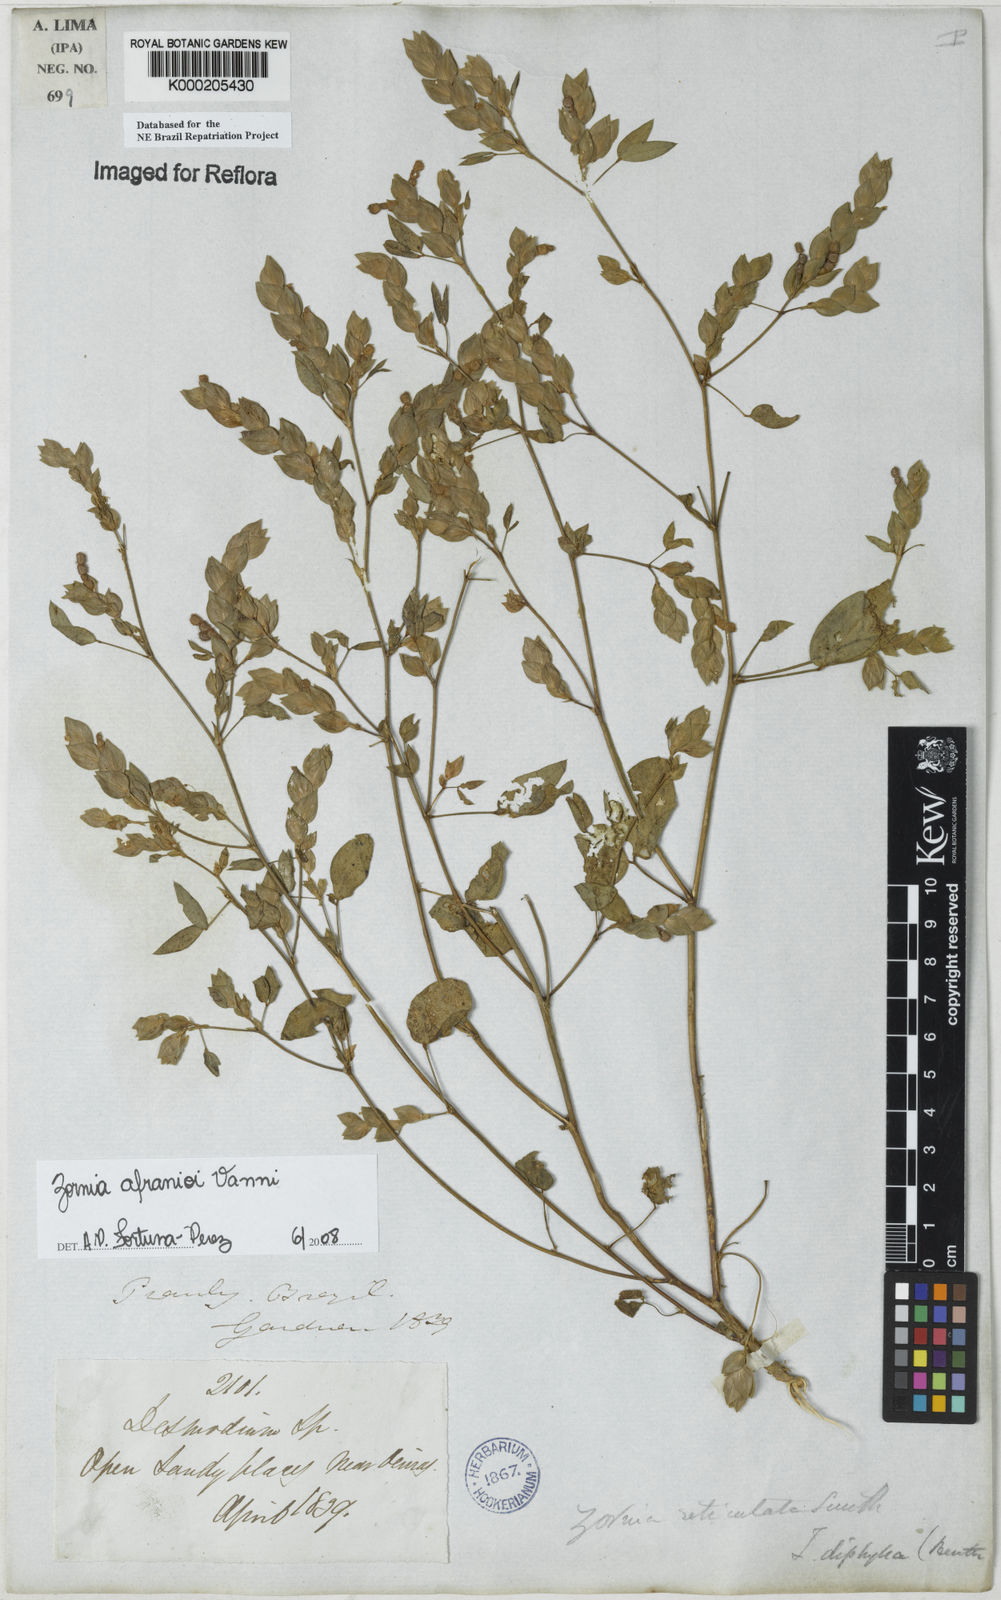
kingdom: Plantae
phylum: Tracheophyta
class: Magnoliopsida
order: Fabales
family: Fabaceae
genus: Zornia
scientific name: Zornia afranioi
